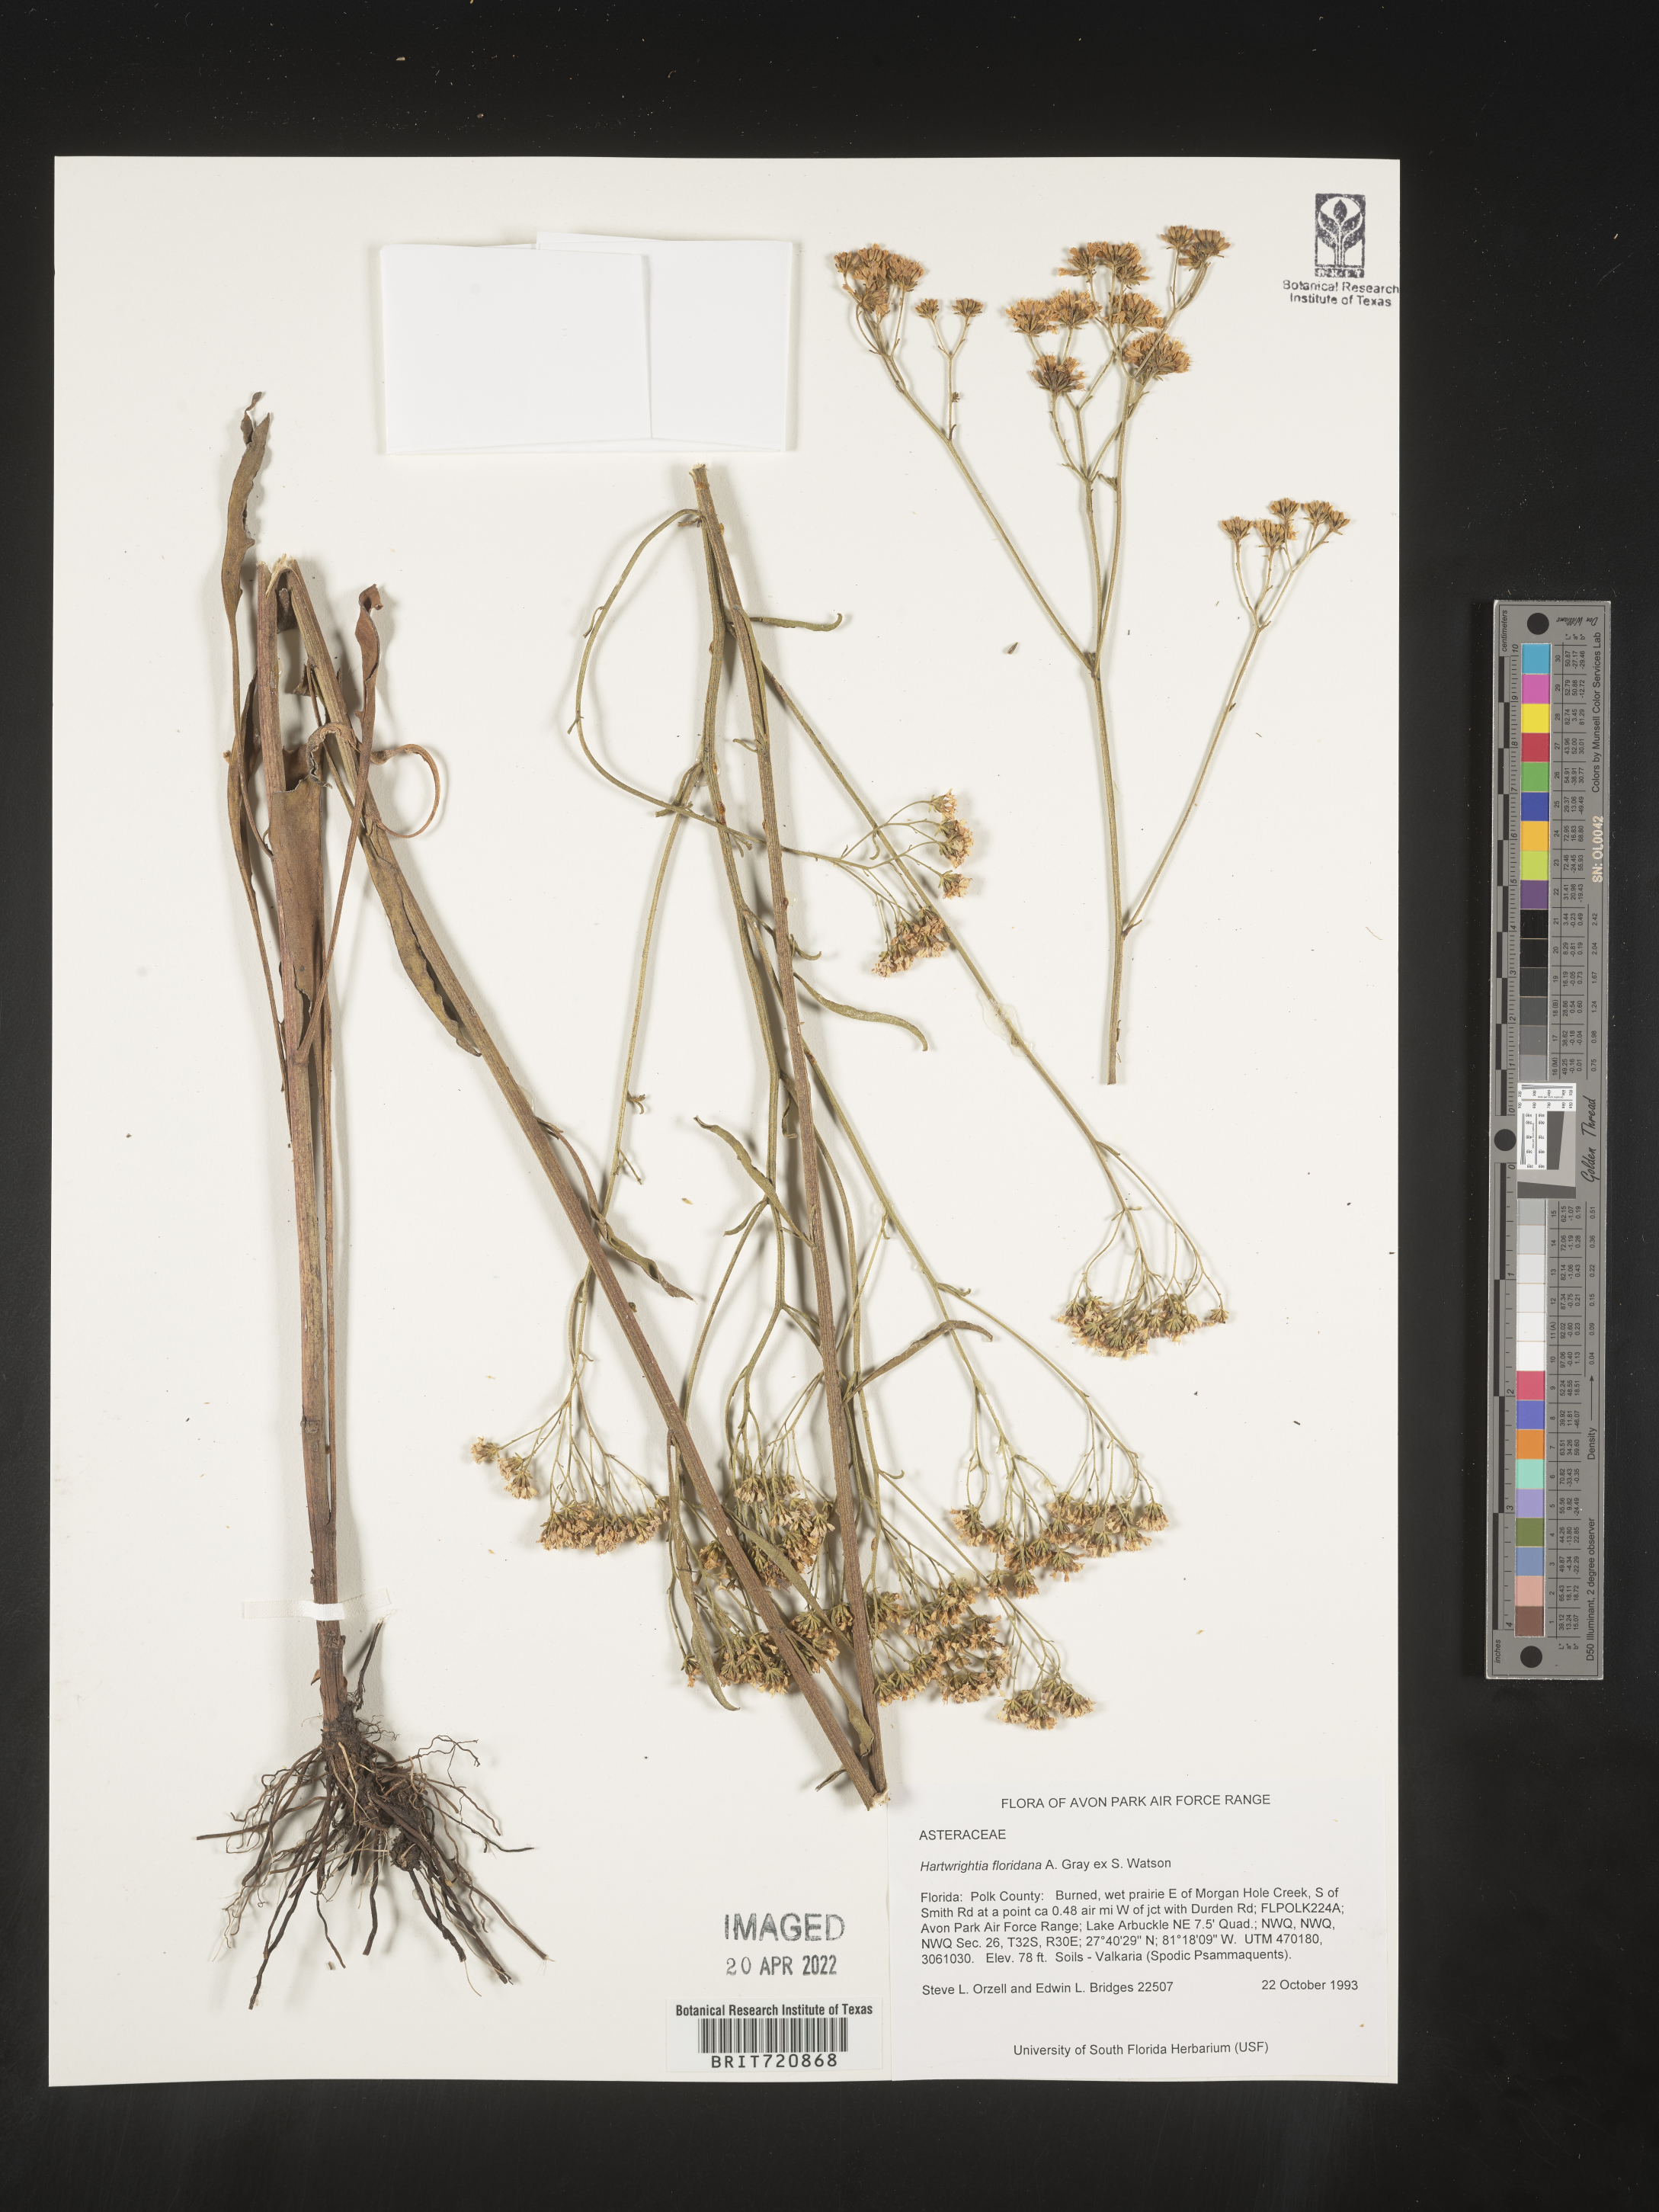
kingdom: Plantae
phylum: Tracheophyta
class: Magnoliopsida
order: Asterales
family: Asteraceae
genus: Hartwrightia
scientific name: Hartwrightia
